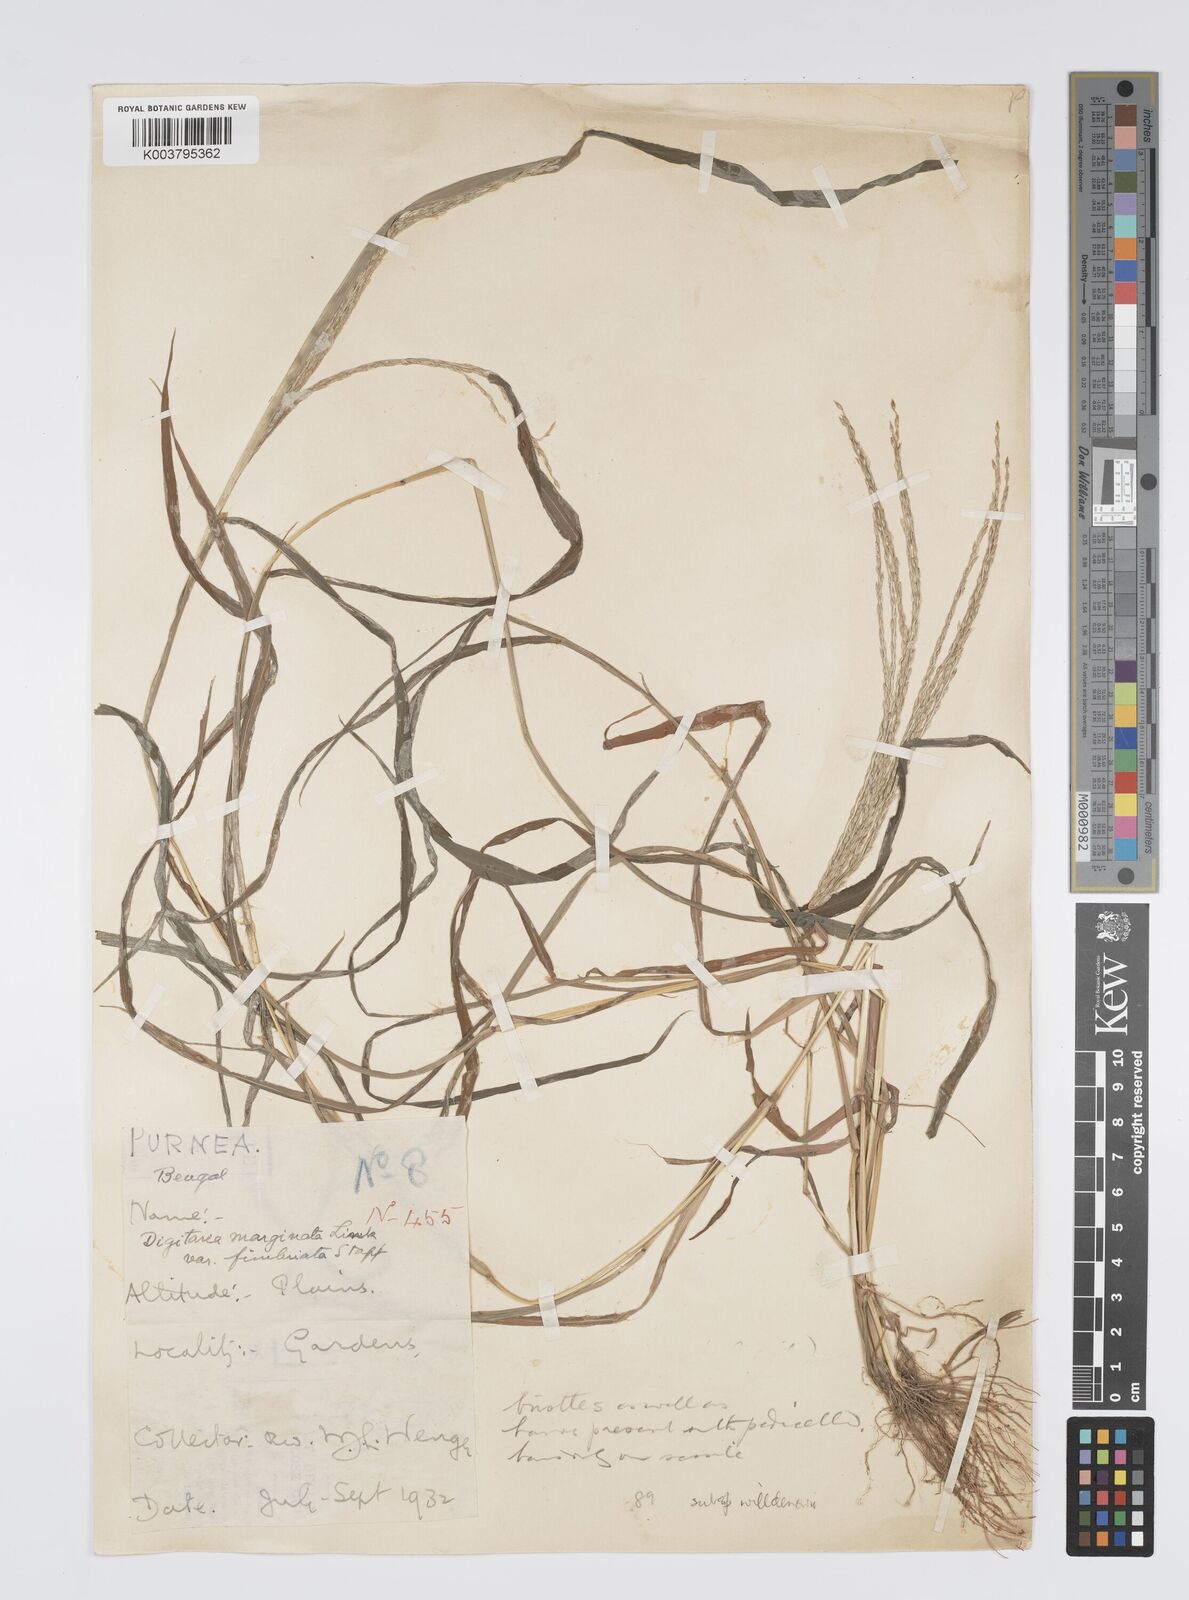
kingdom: Plantae
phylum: Tracheophyta
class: Liliopsida
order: Poales
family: Poaceae
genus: Digitaria
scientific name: Digitaria ciliaris
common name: Tropical finger-grass
